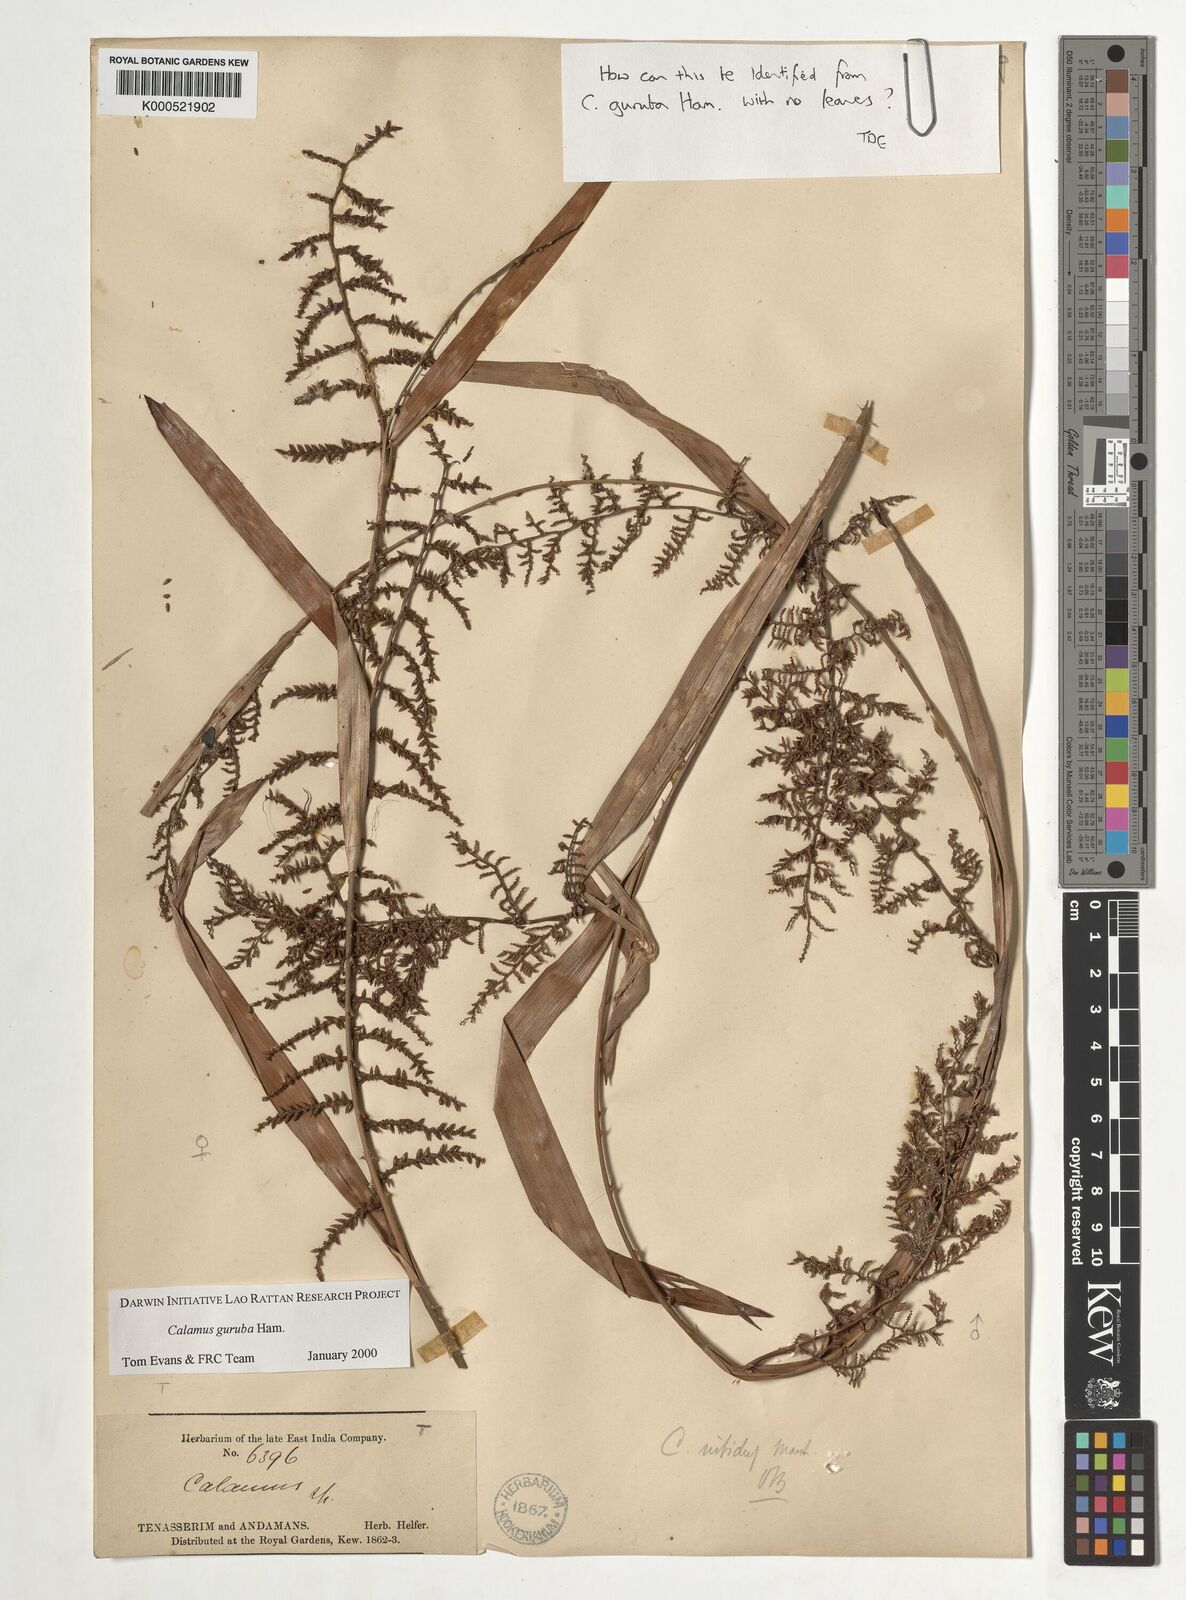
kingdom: Plantae
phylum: Tracheophyta
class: Liliopsida
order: Arecales
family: Arecaceae
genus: Calamus
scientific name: Calamus
